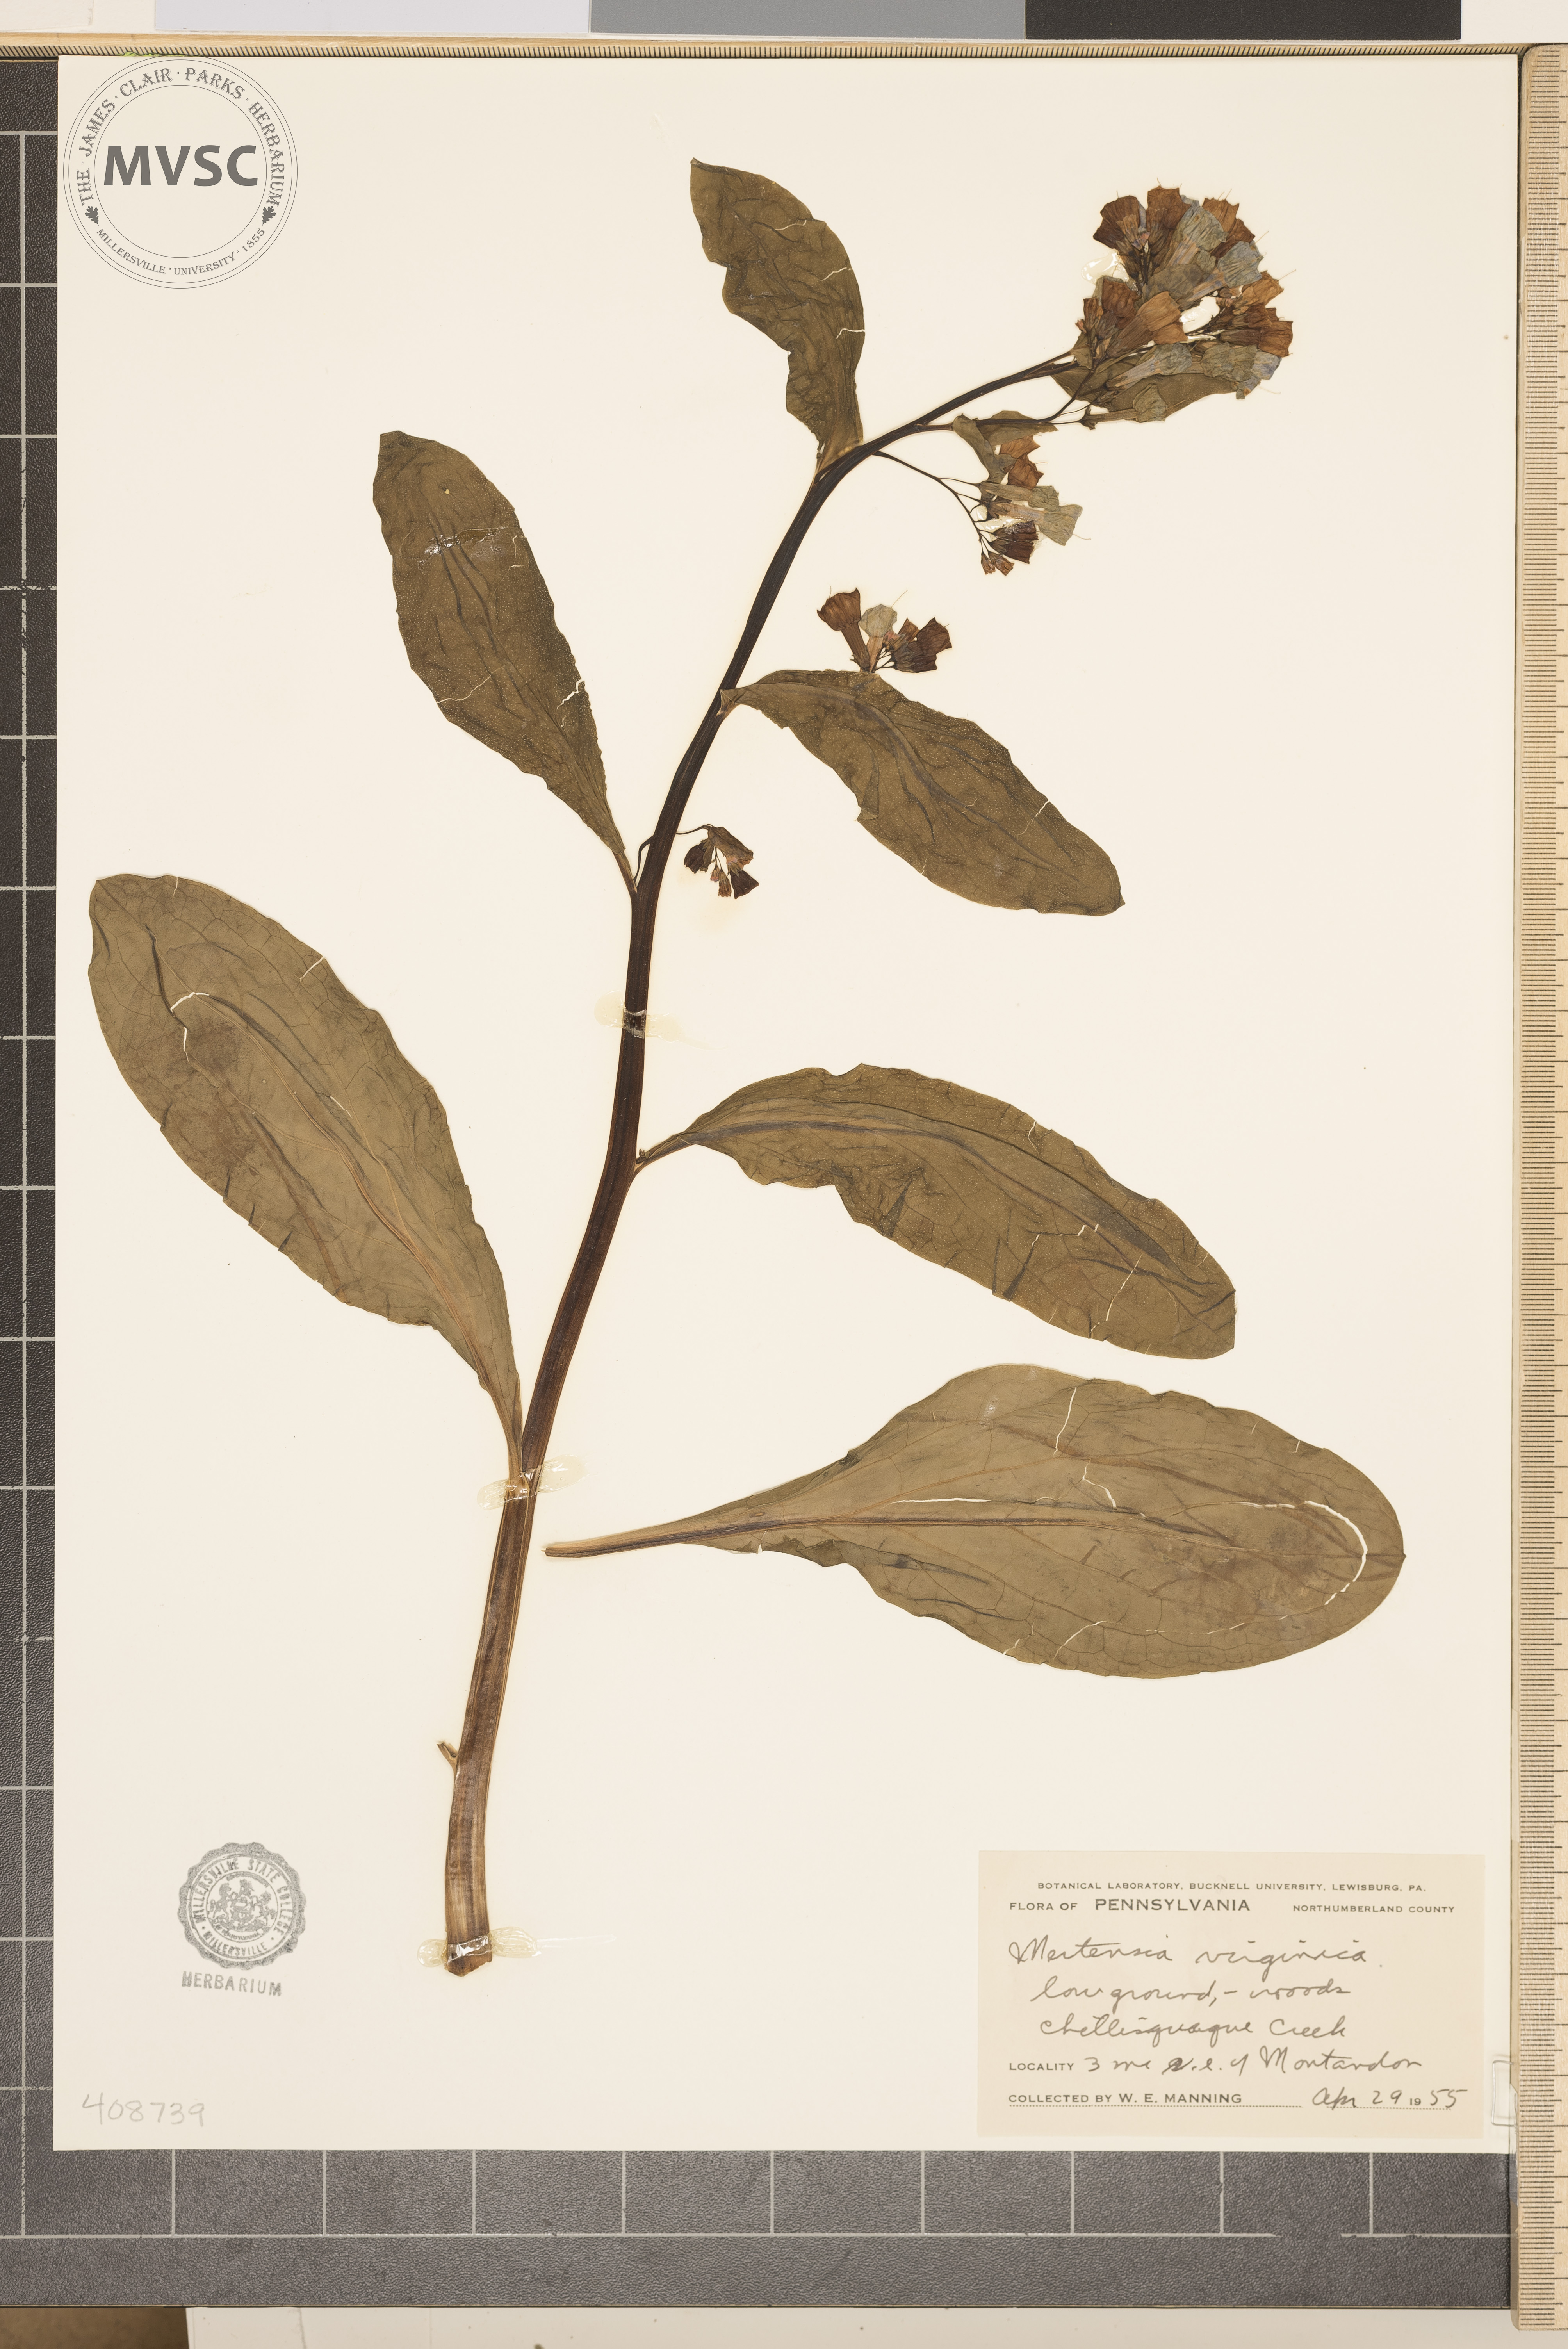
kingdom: Plantae
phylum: Tracheophyta
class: Magnoliopsida
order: Boraginales
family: Boraginaceae
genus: Mertensia
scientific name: Mertensia virginica
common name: Virginia bluebells
